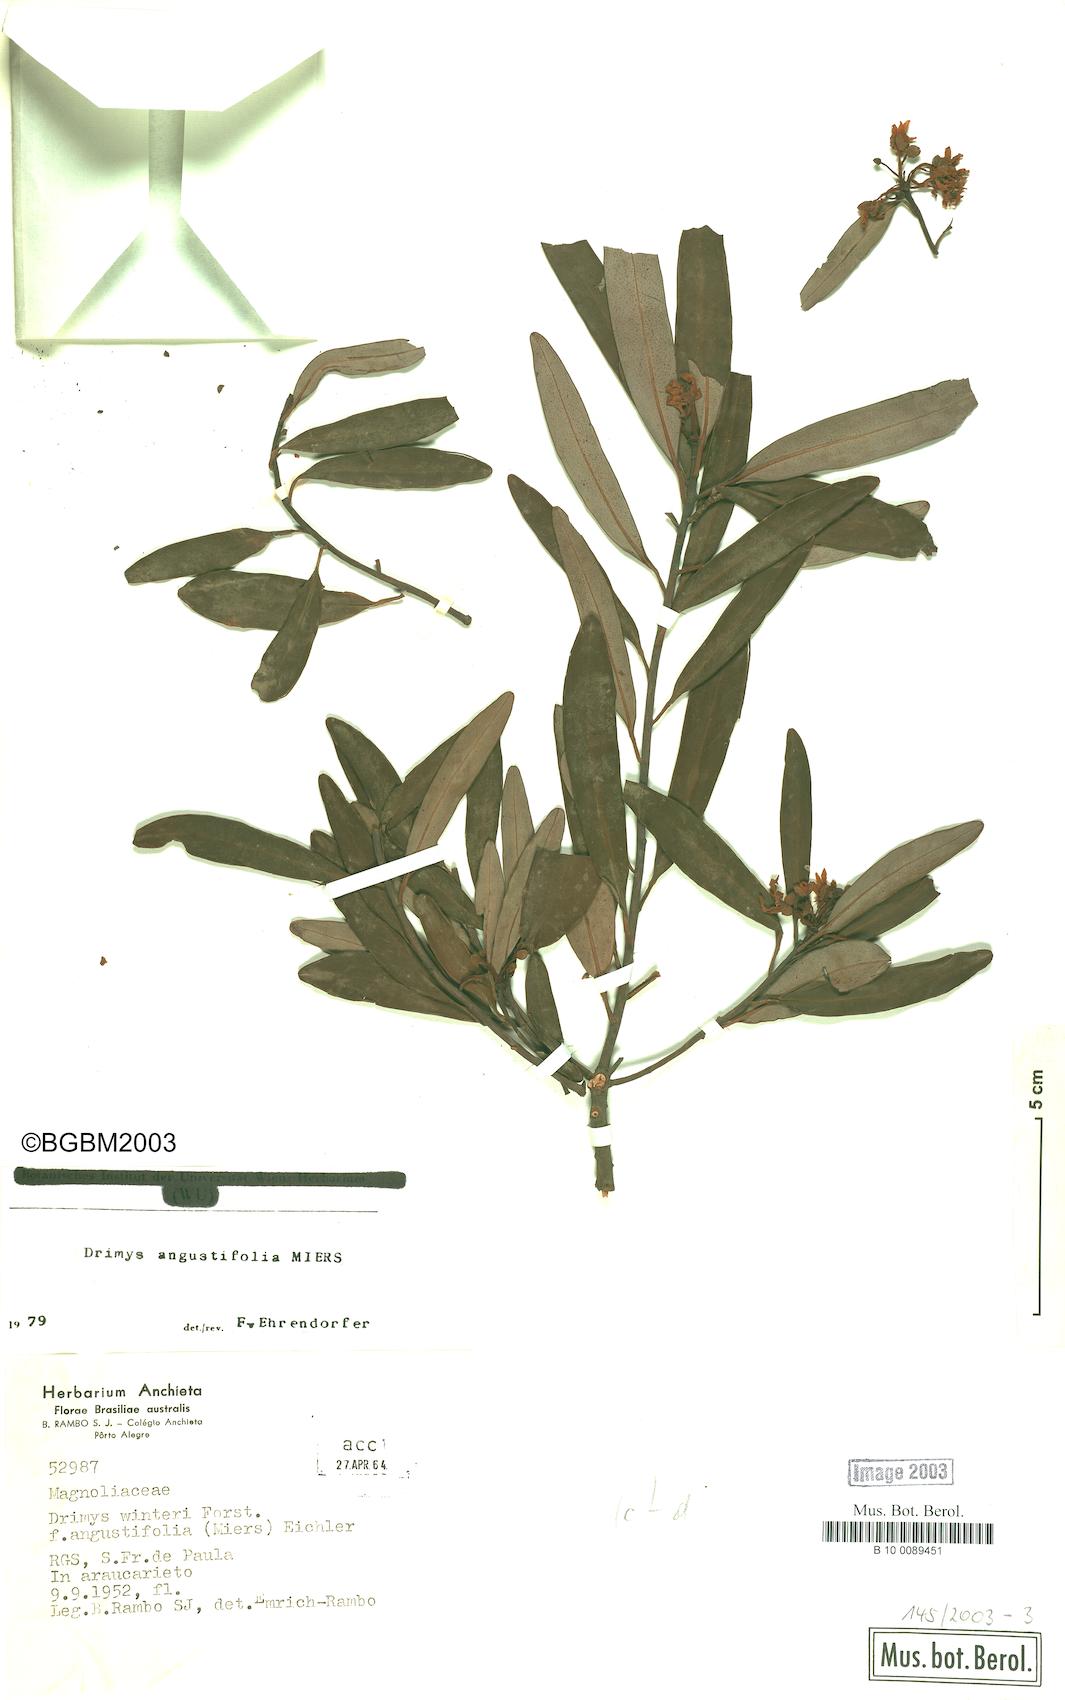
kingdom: Plantae
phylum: Tracheophyta
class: Magnoliopsida
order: Canellales
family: Winteraceae
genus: Drimys
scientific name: Drimys angustifolia
